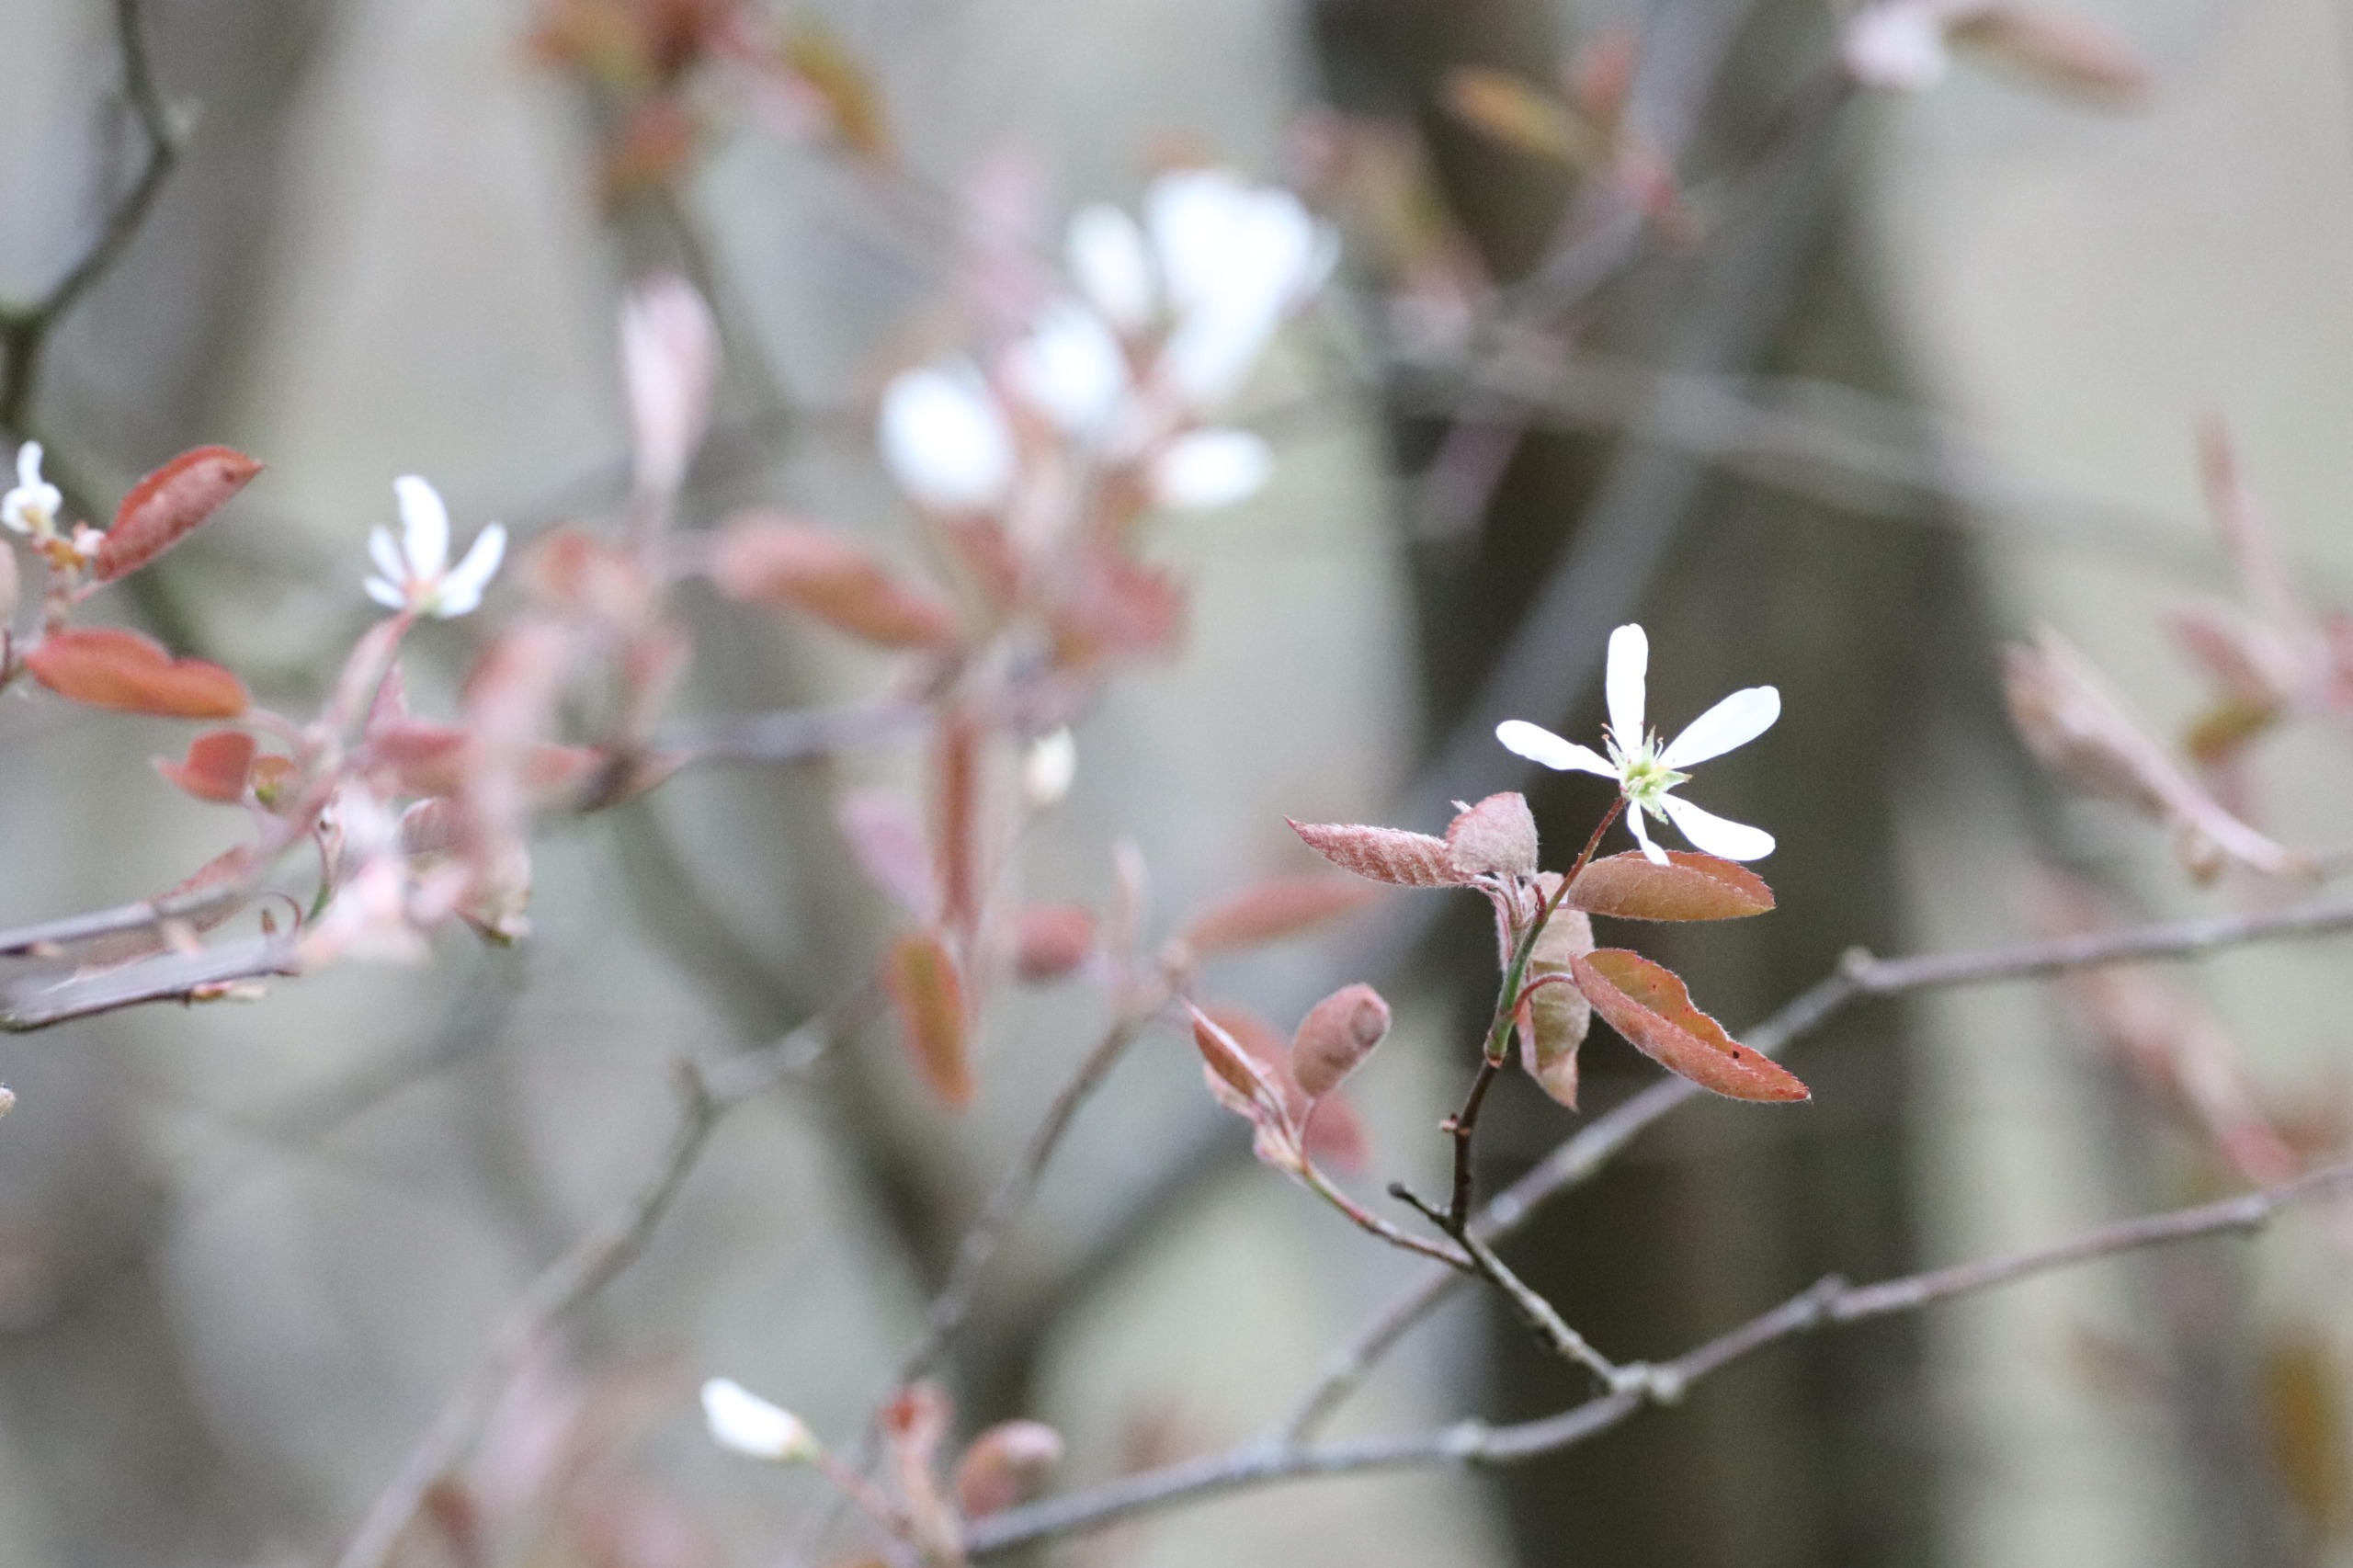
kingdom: Plantae
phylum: Tracheophyta
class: Magnoliopsida
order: Rosales
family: Rosaceae
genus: Amelanchier
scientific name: Amelanchier lamarckii
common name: Bærmispel
